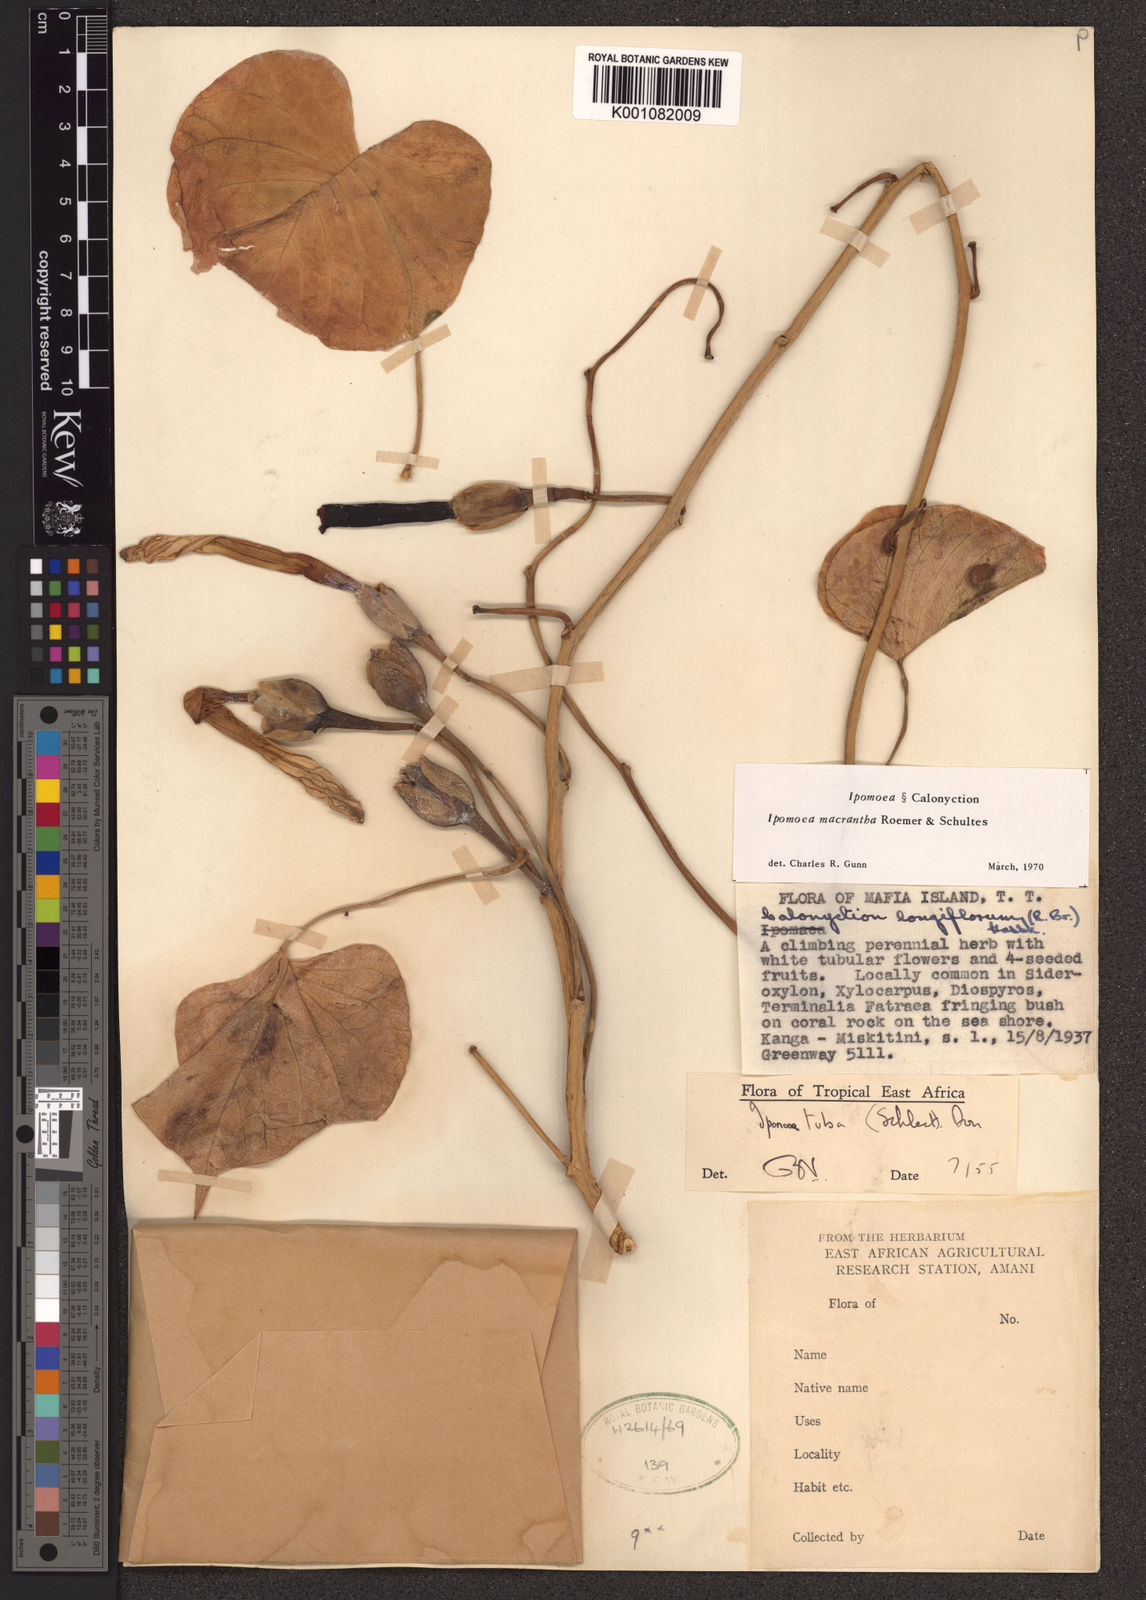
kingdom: Plantae
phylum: Tracheophyta
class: Magnoliopsida
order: Solanales
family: Convolvulaceae
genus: Ipomoea
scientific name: Ipomoea violacea
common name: Beach moonflower
